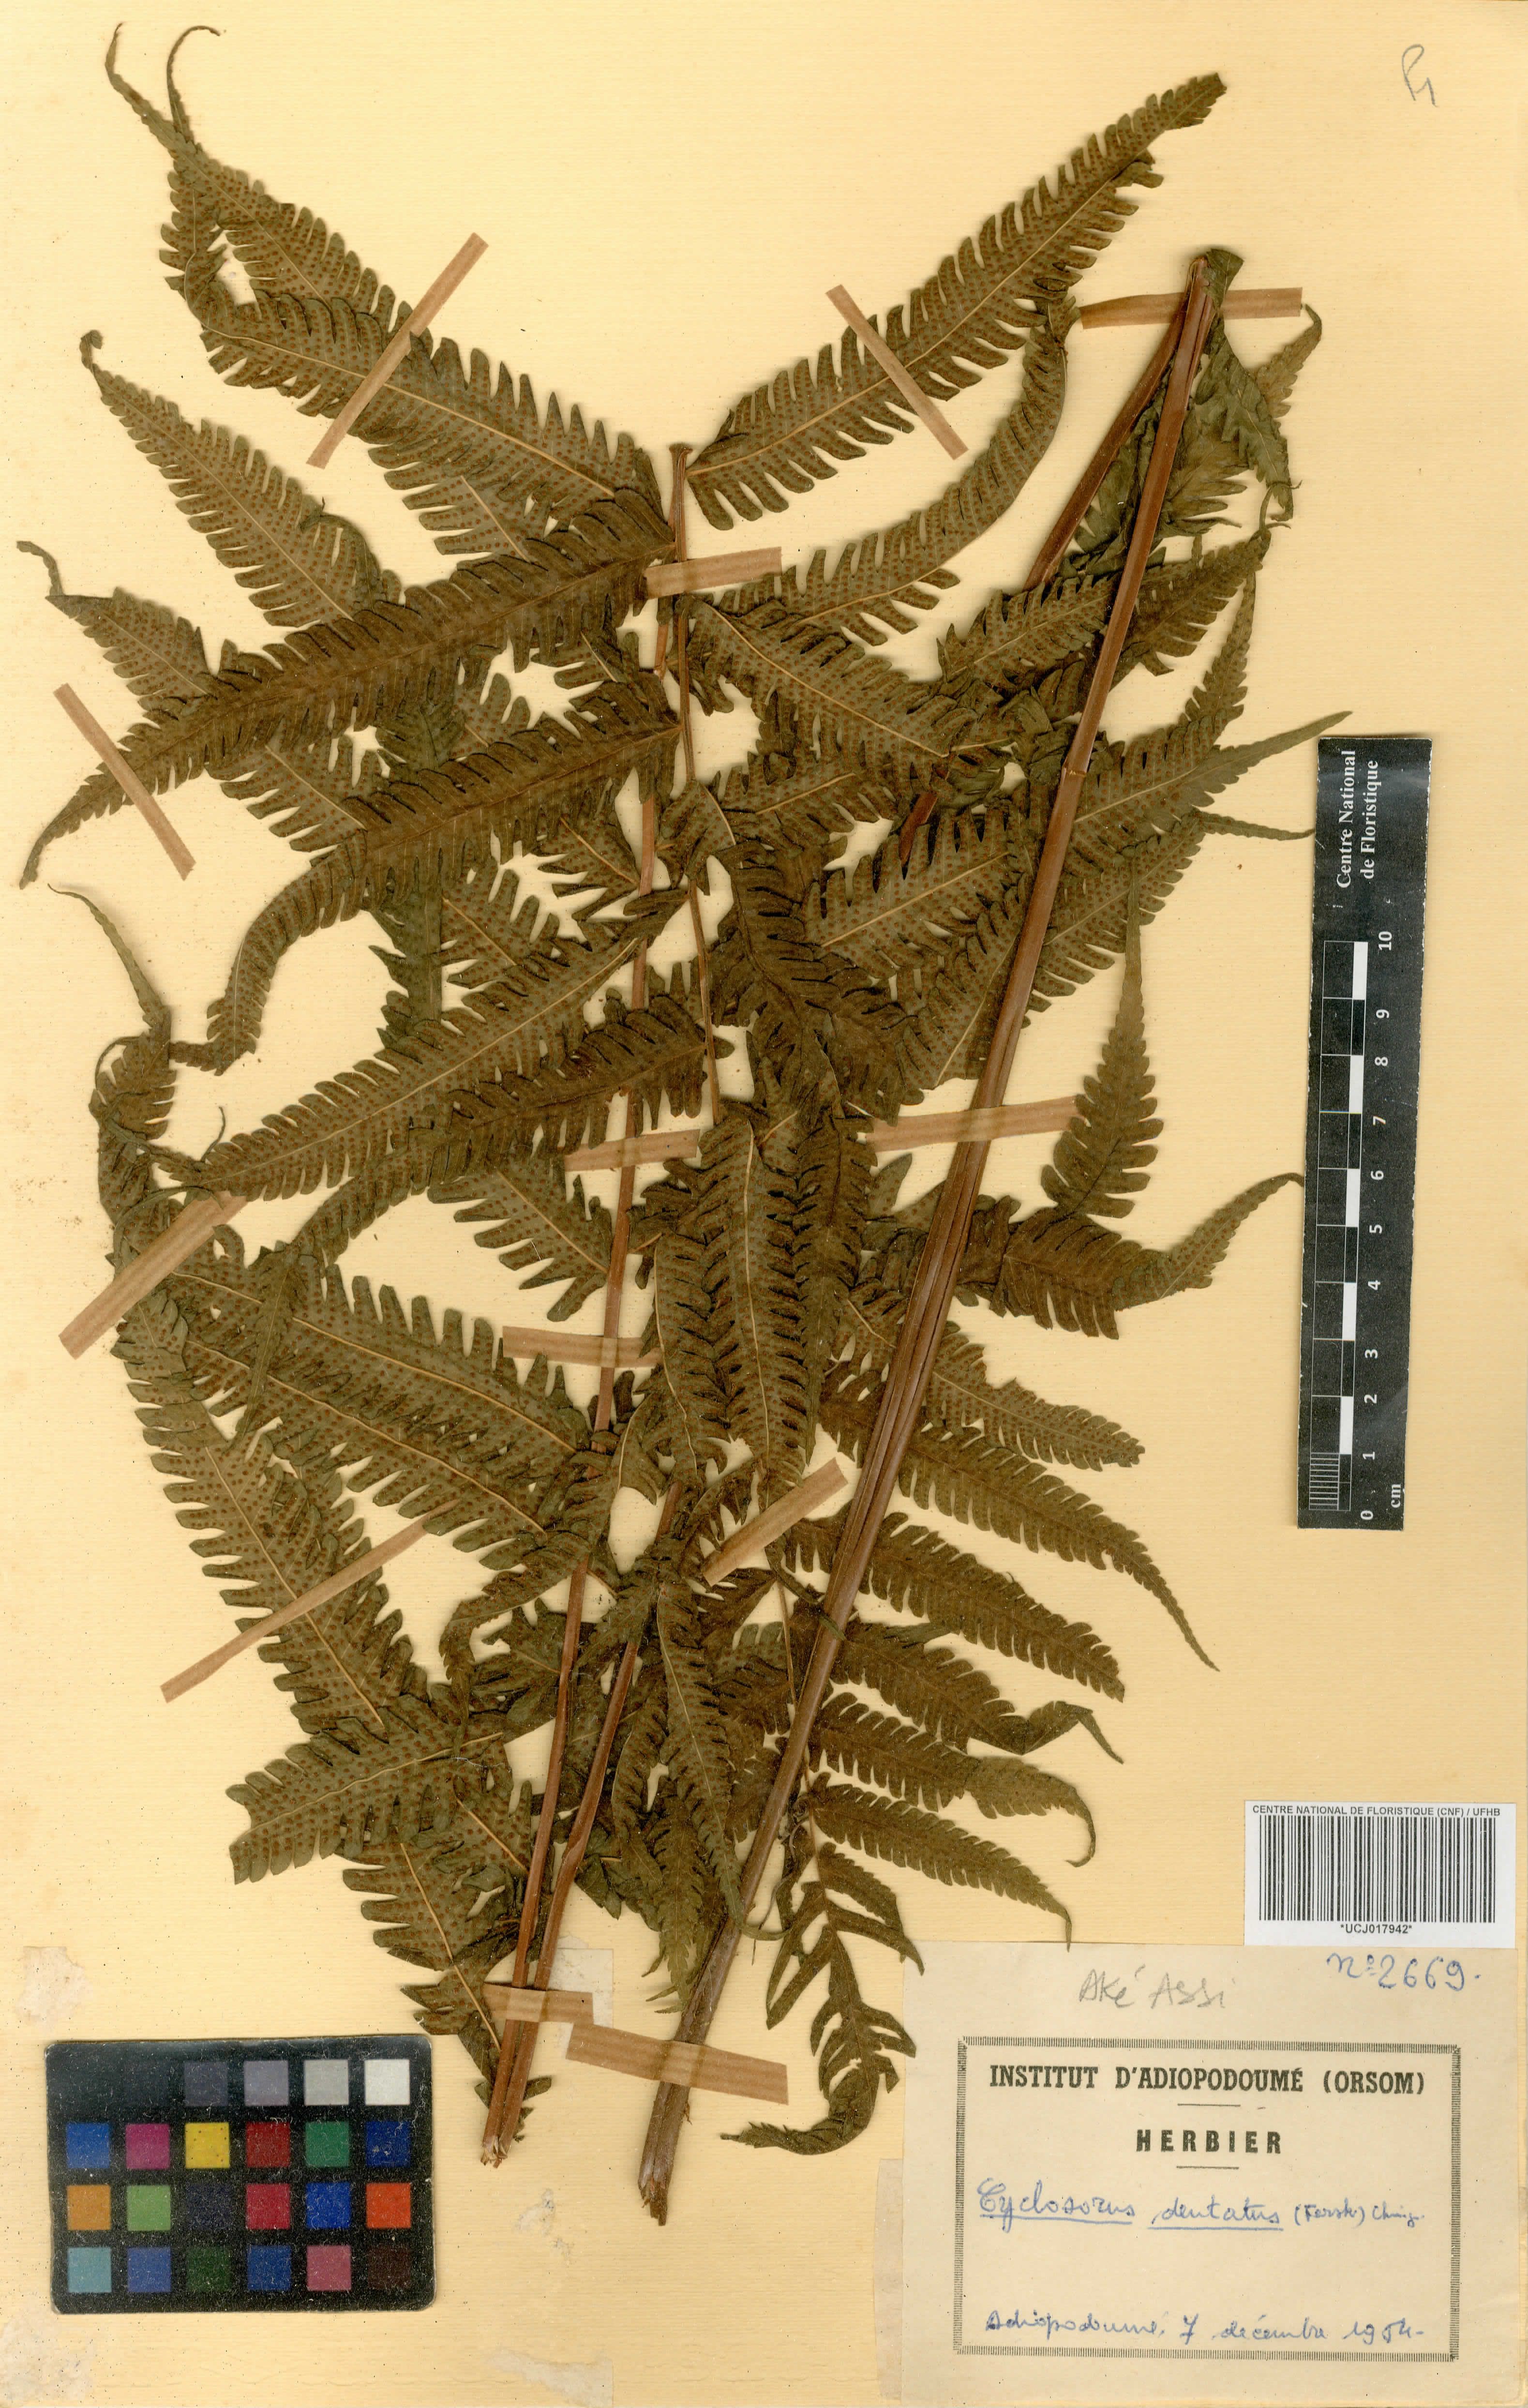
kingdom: Plantae
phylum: Tracheophyta
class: Polypodiopsida
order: Polypodiales
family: Thelypteridaceae
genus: Christella
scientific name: Christella dentata
